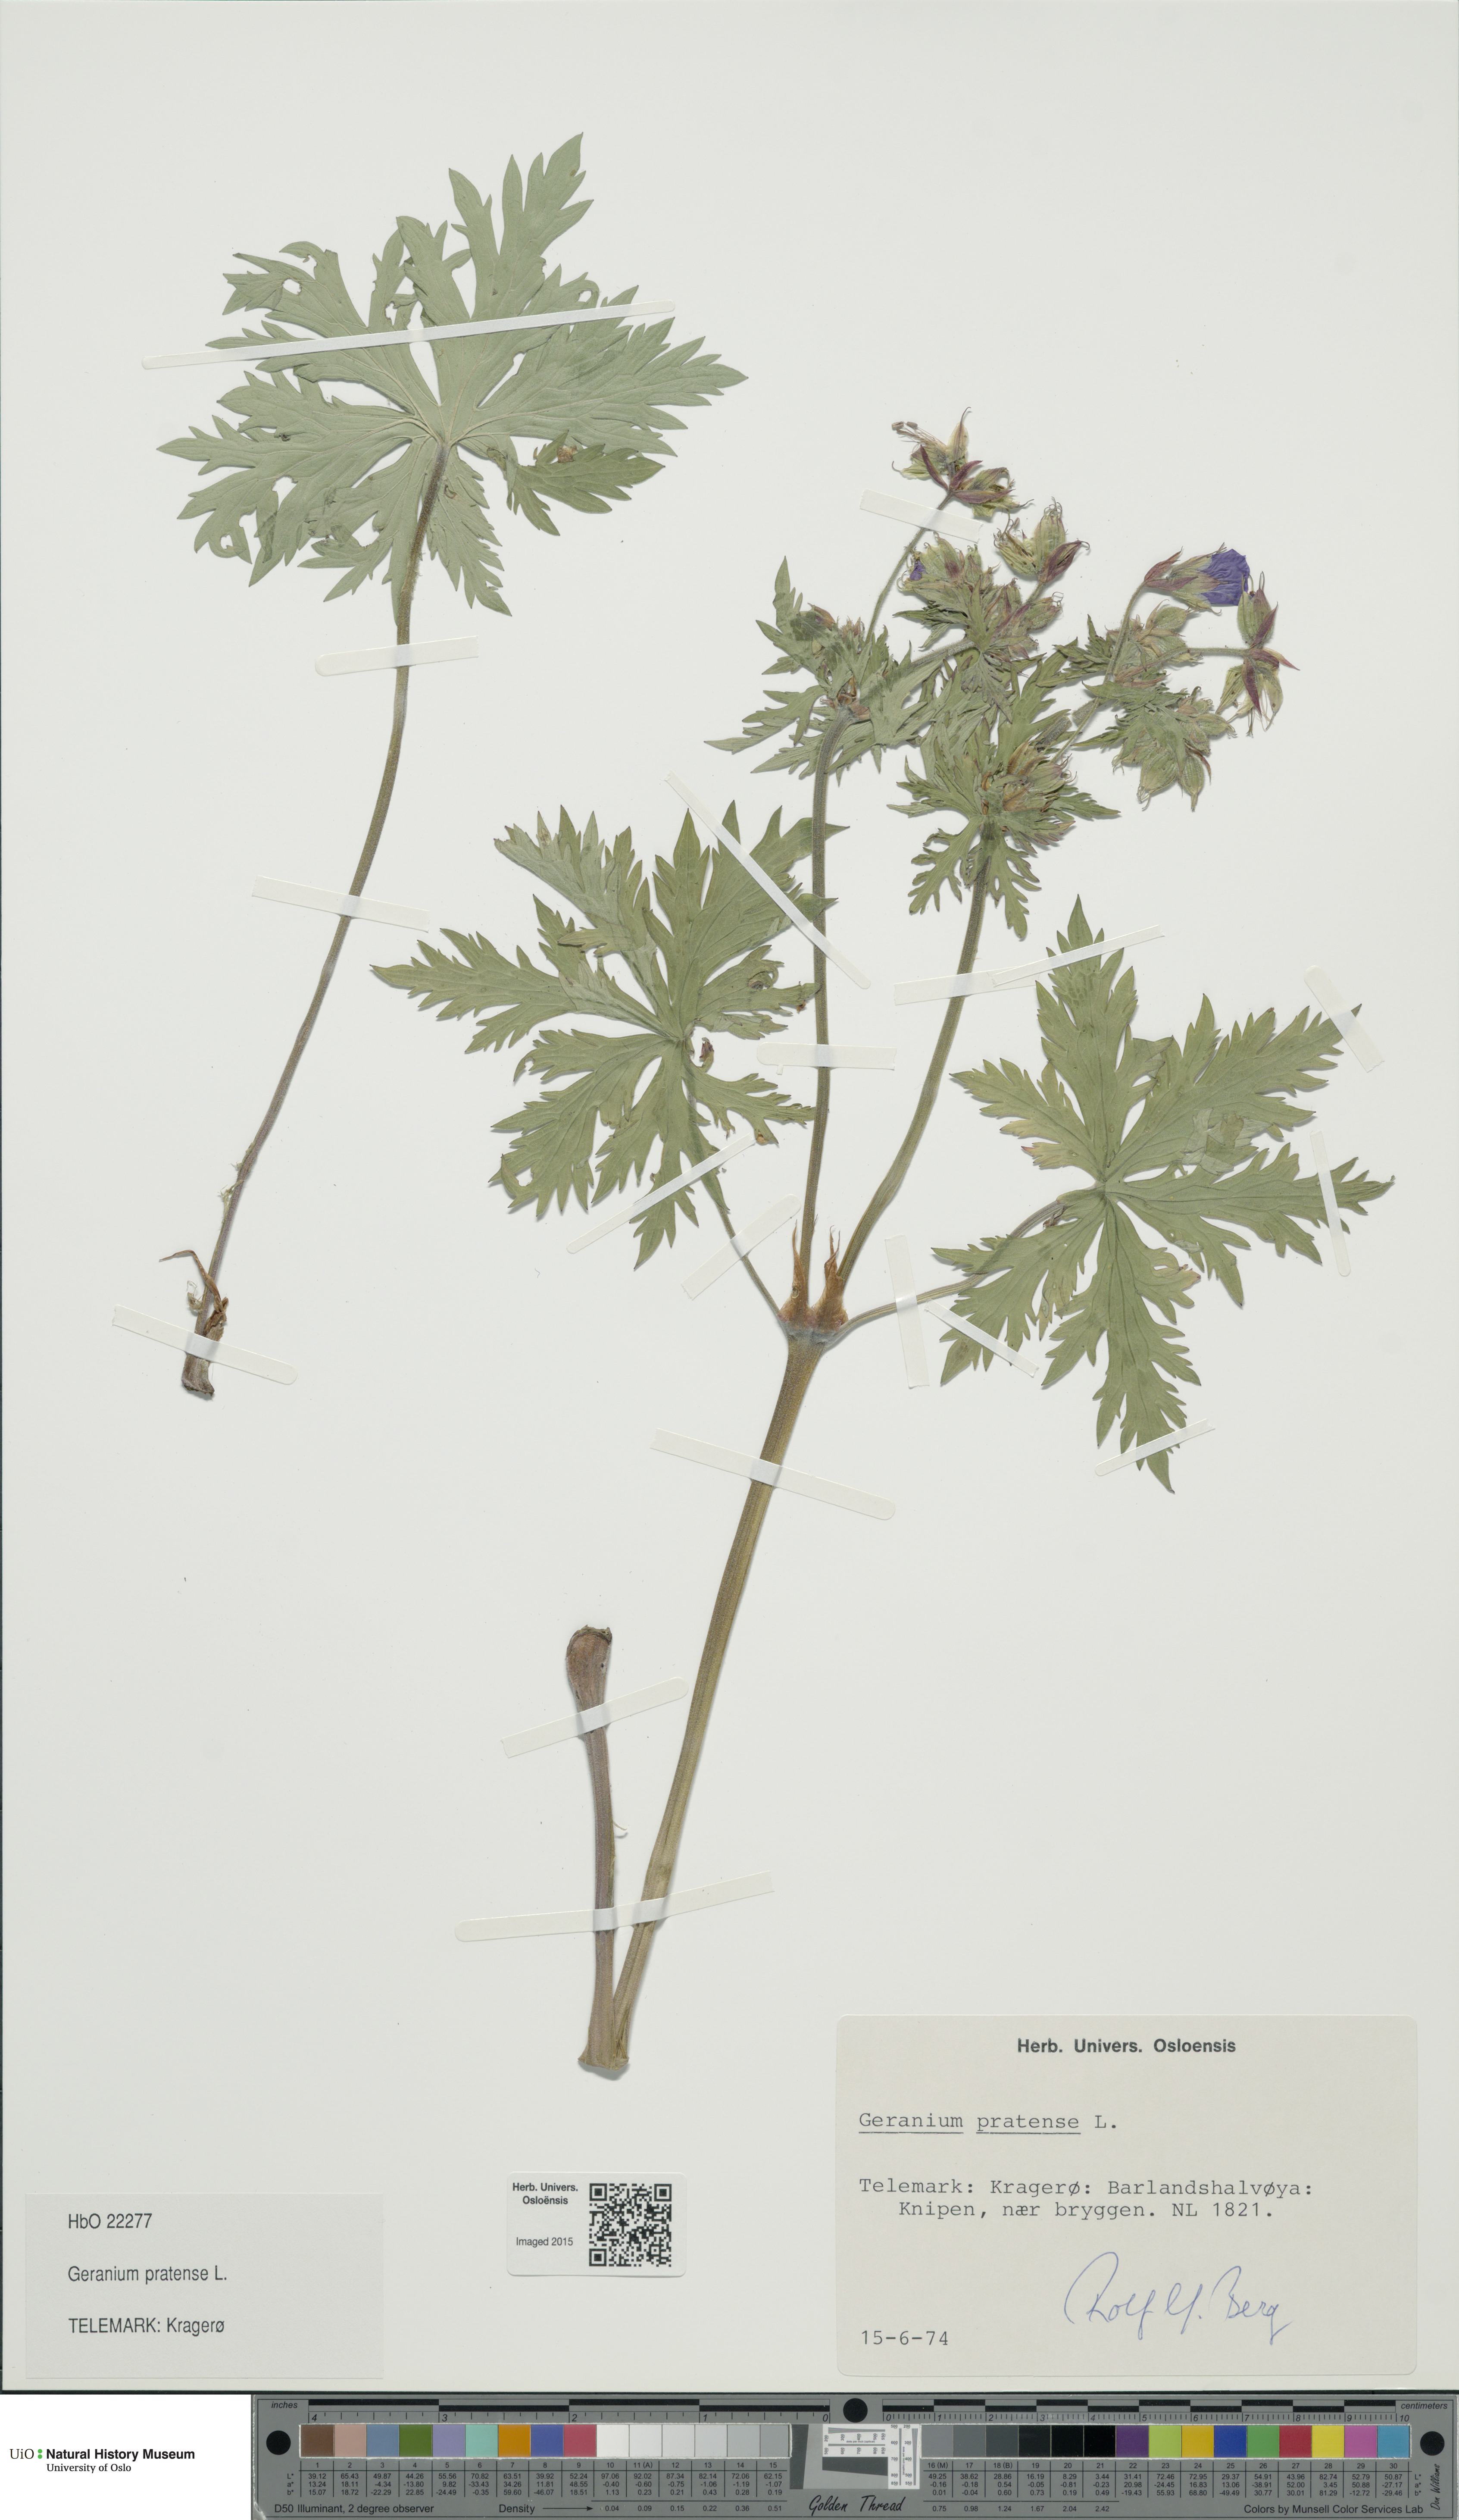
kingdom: Plantae
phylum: Tracheophyta
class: Magnoliopsida
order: Geraniales
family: Geraniaceae
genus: Geranium
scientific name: Geranium pratense
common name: Meadow crane's-bill
